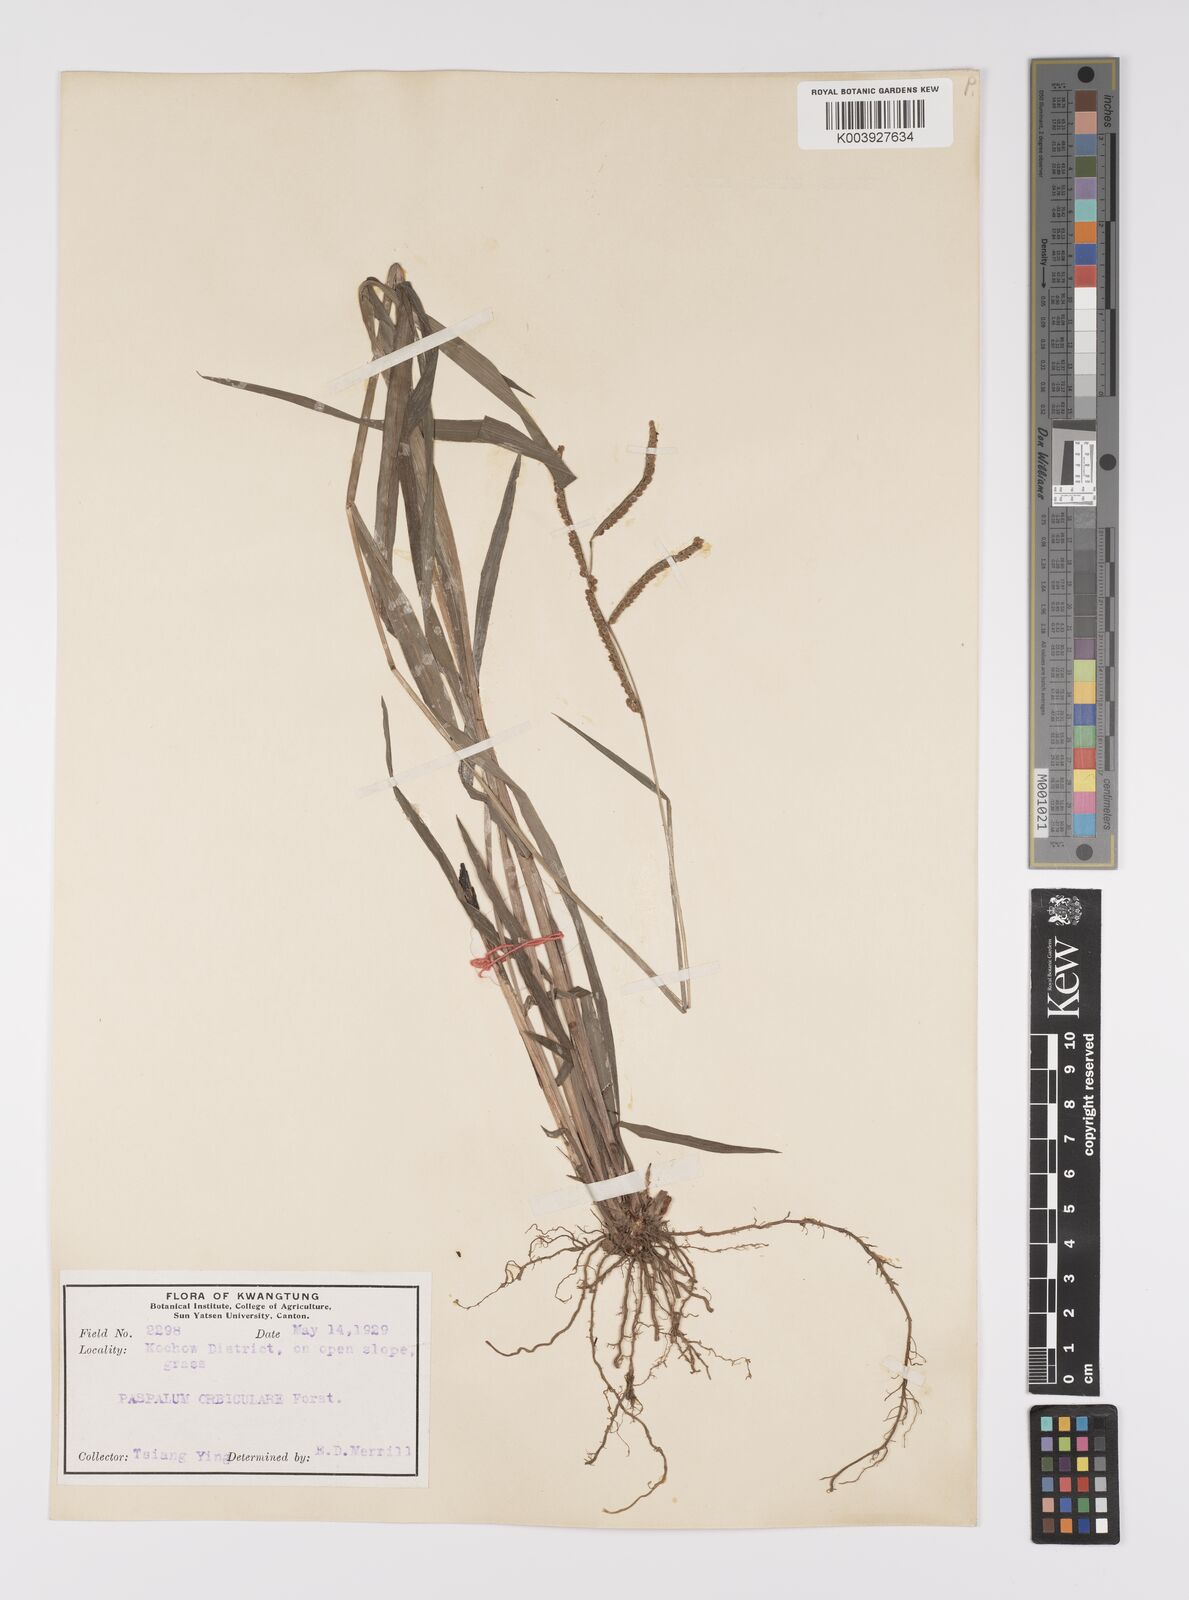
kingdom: Plantae
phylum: Tracheophyta
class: Liliopsida
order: Poales
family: Poaceae
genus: Paspalum
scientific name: Paspalum orbiculare
